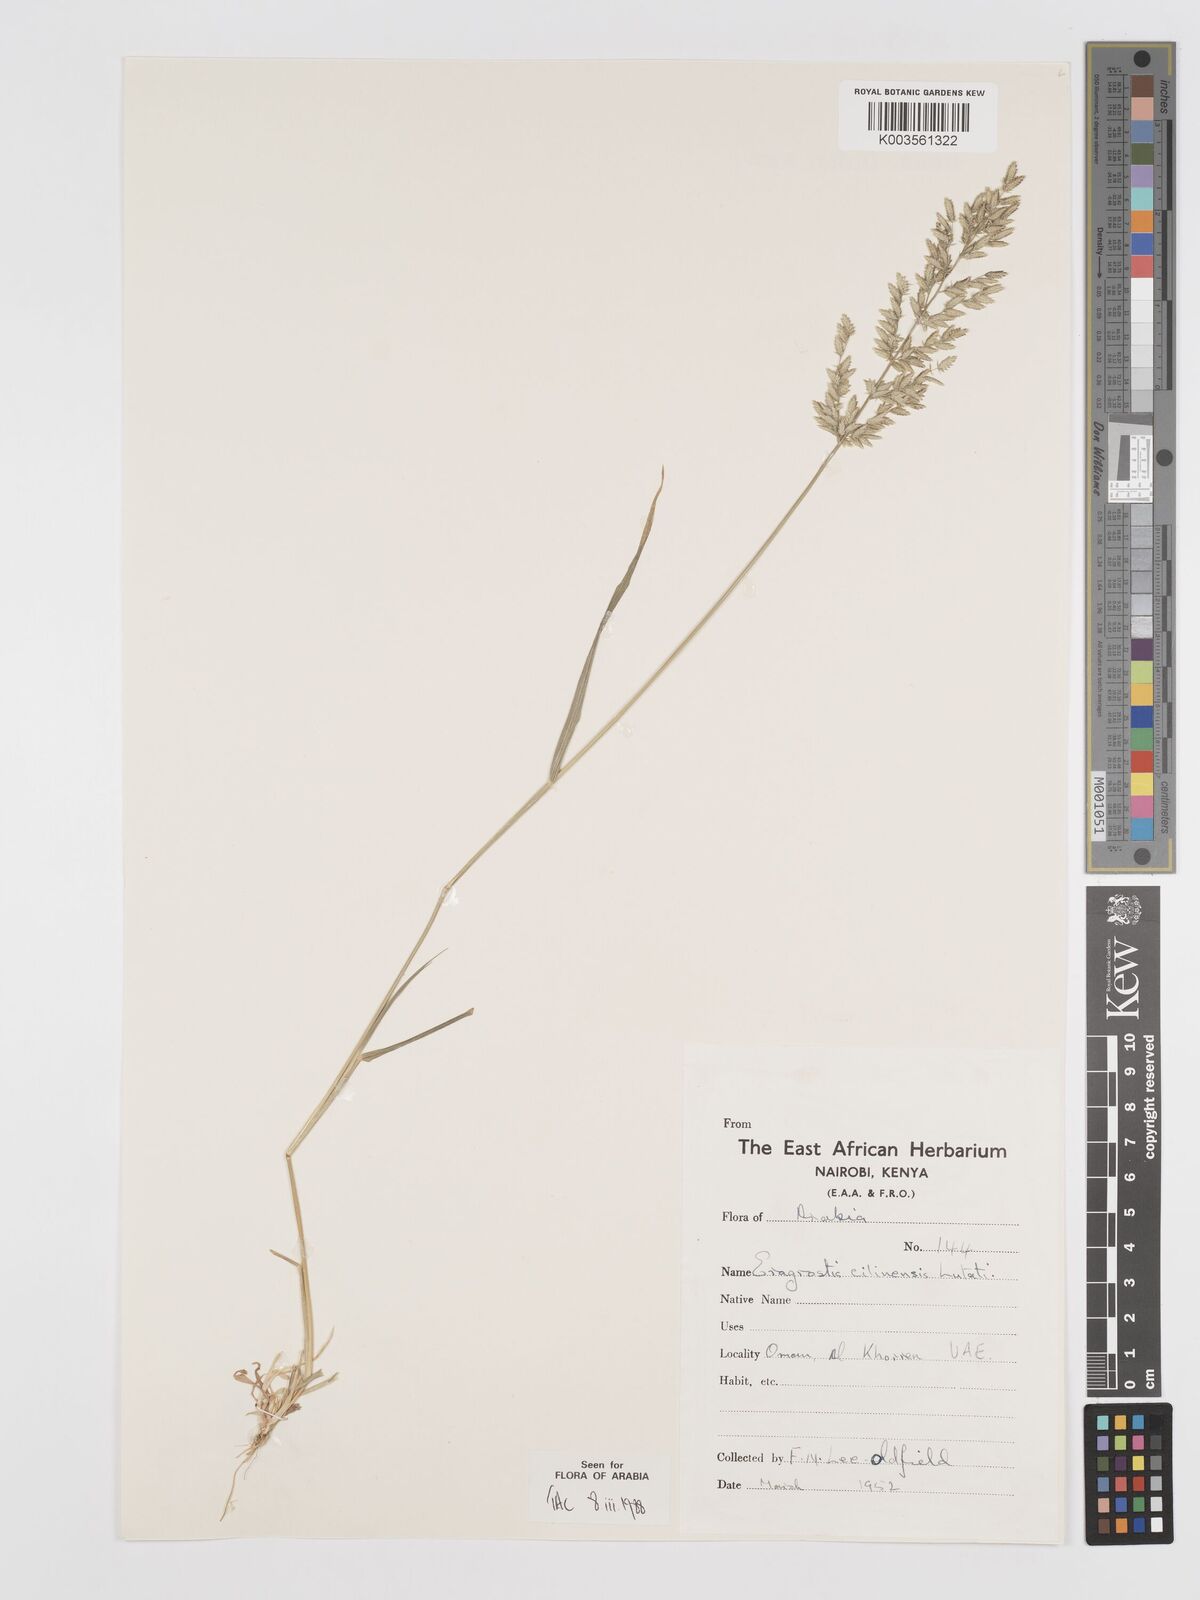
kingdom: Plantae
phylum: Tracheophyta
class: Liliopsida
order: Poales
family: Poaceae
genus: Eragrostis
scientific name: Eragrostis cilianensis
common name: Stinkgrass
